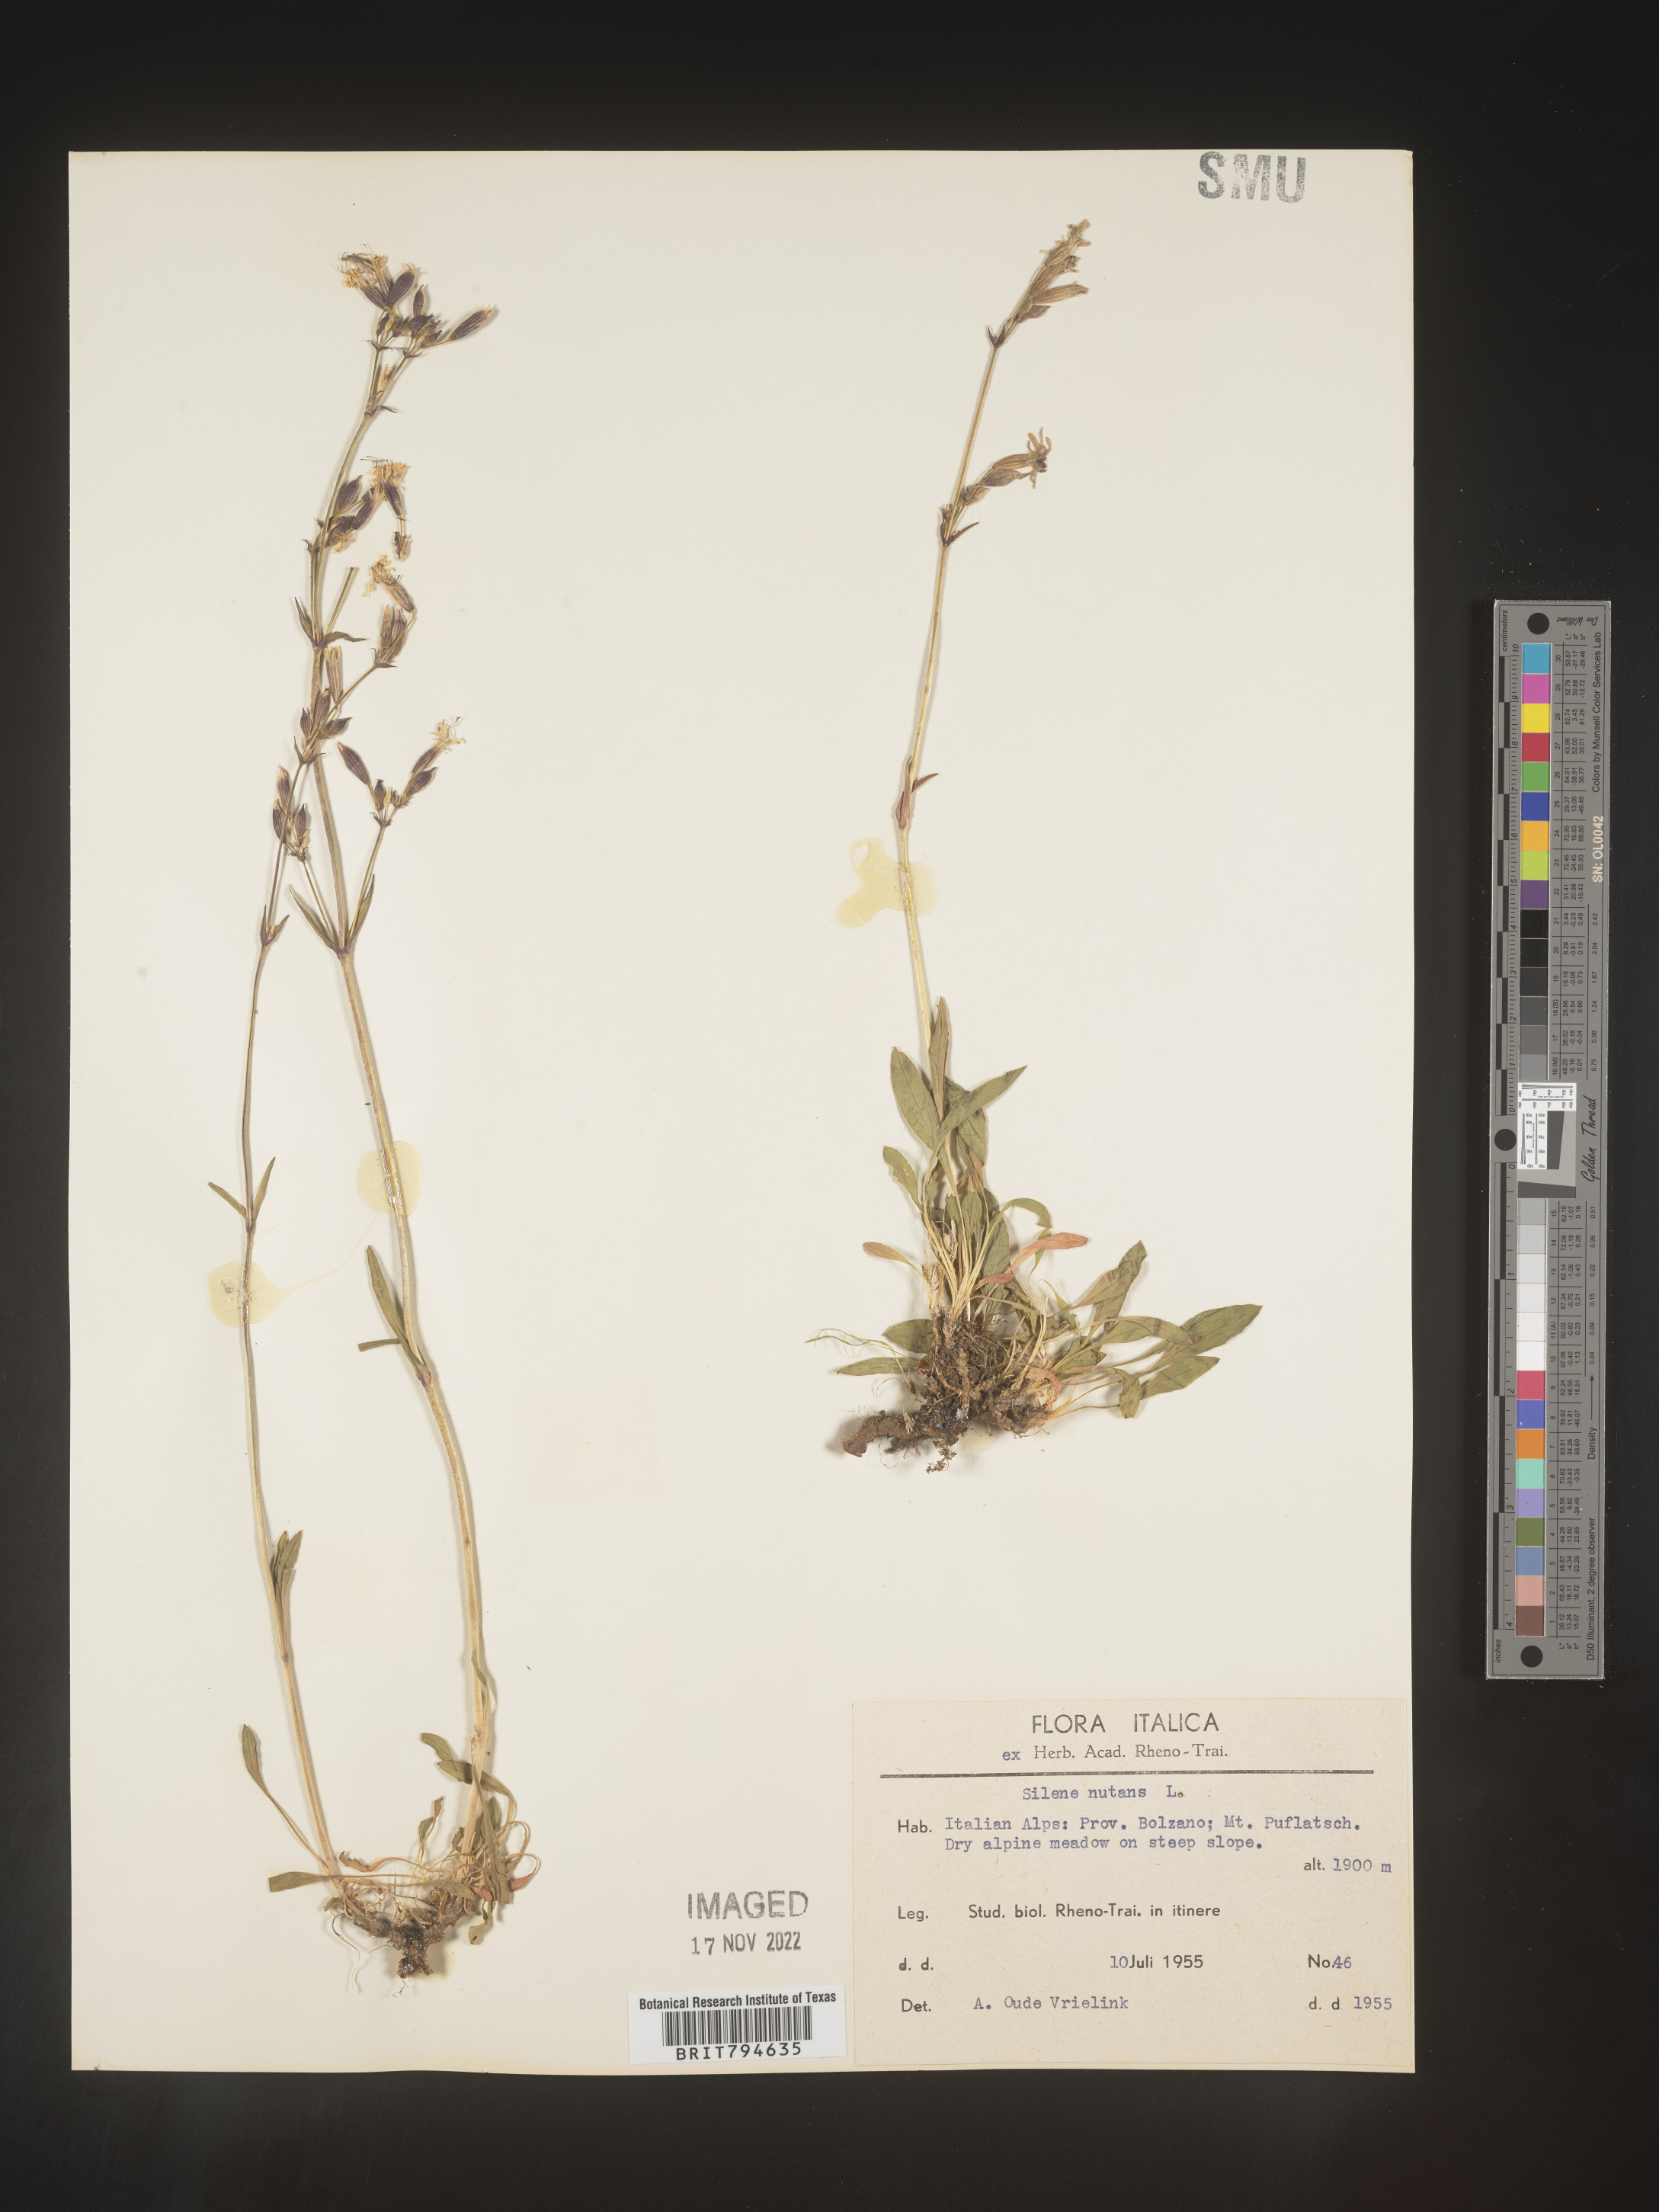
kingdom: Plantae
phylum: Tracheophyta
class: Magnoliopsida
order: Caryophyllales
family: Caryophyllaceae
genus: Silene
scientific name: Silene nutans
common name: Nottingham catchfly
